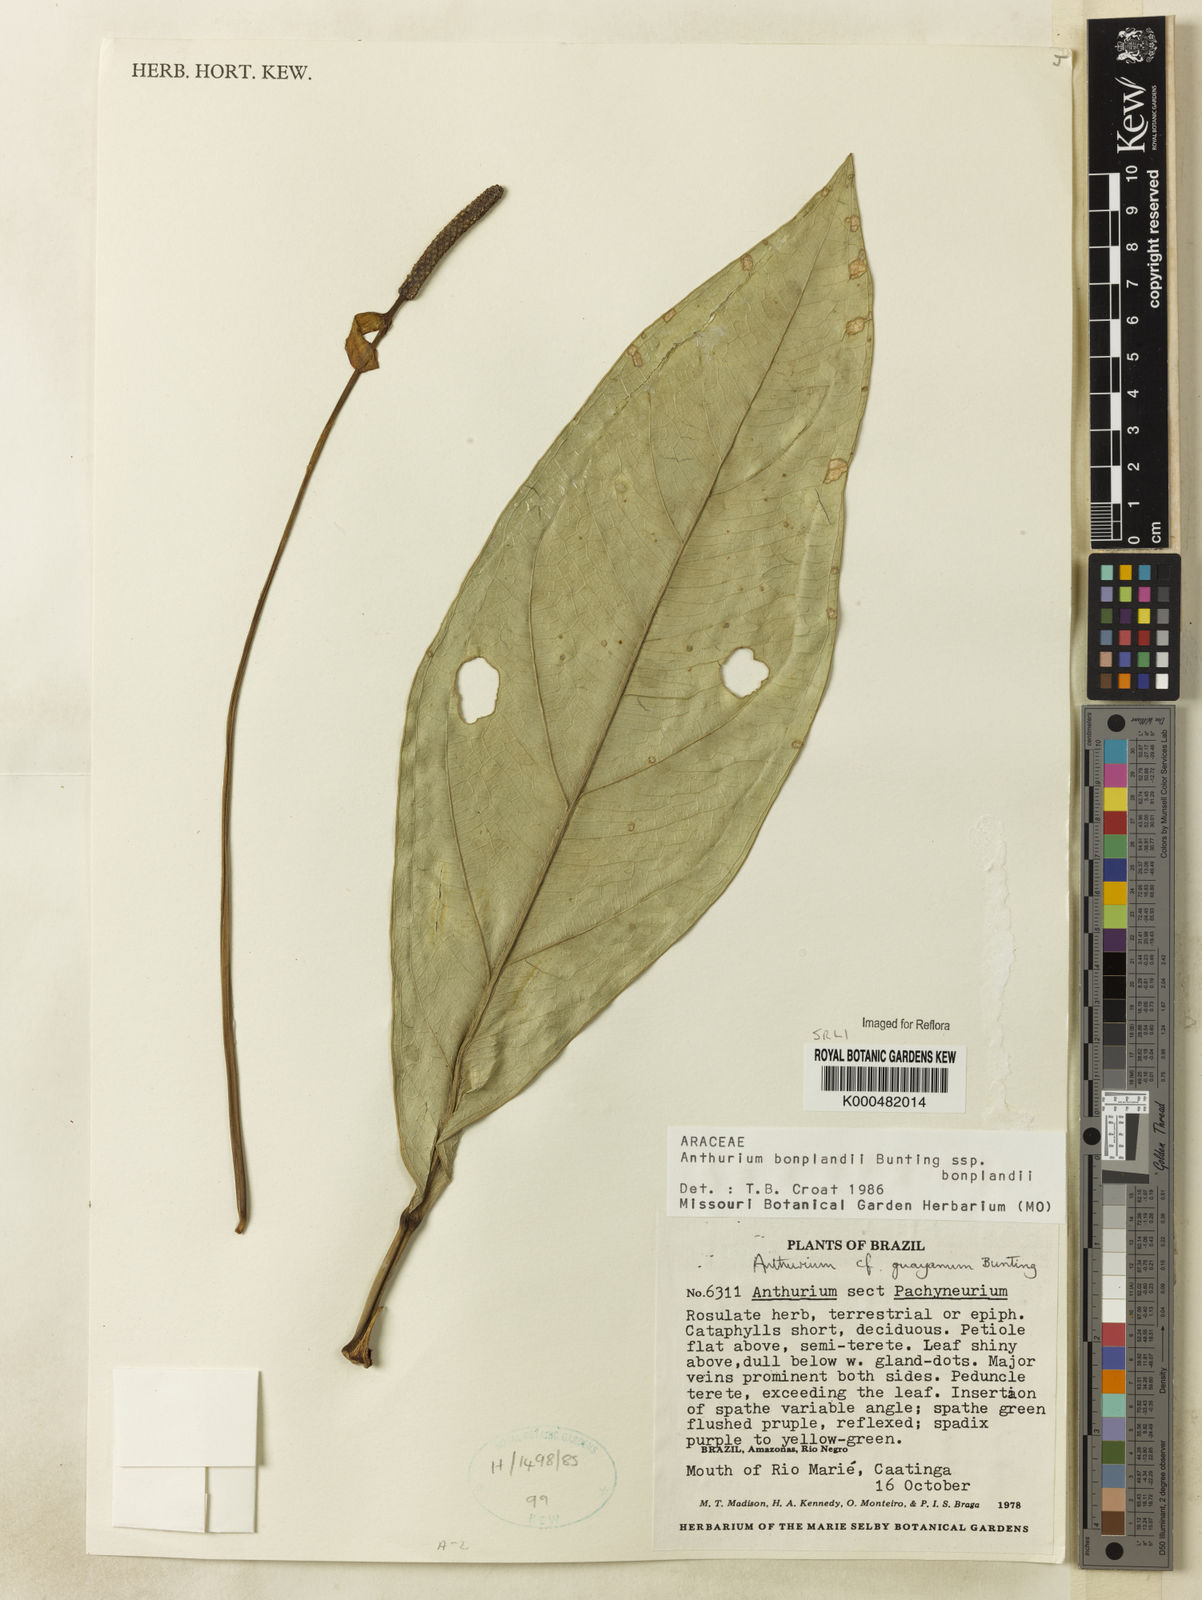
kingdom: Plantae
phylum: Tracheophyta
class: Liliopsida
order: Alismatales
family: Araceae
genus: Anthurium
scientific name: Anthurium bonplandii
